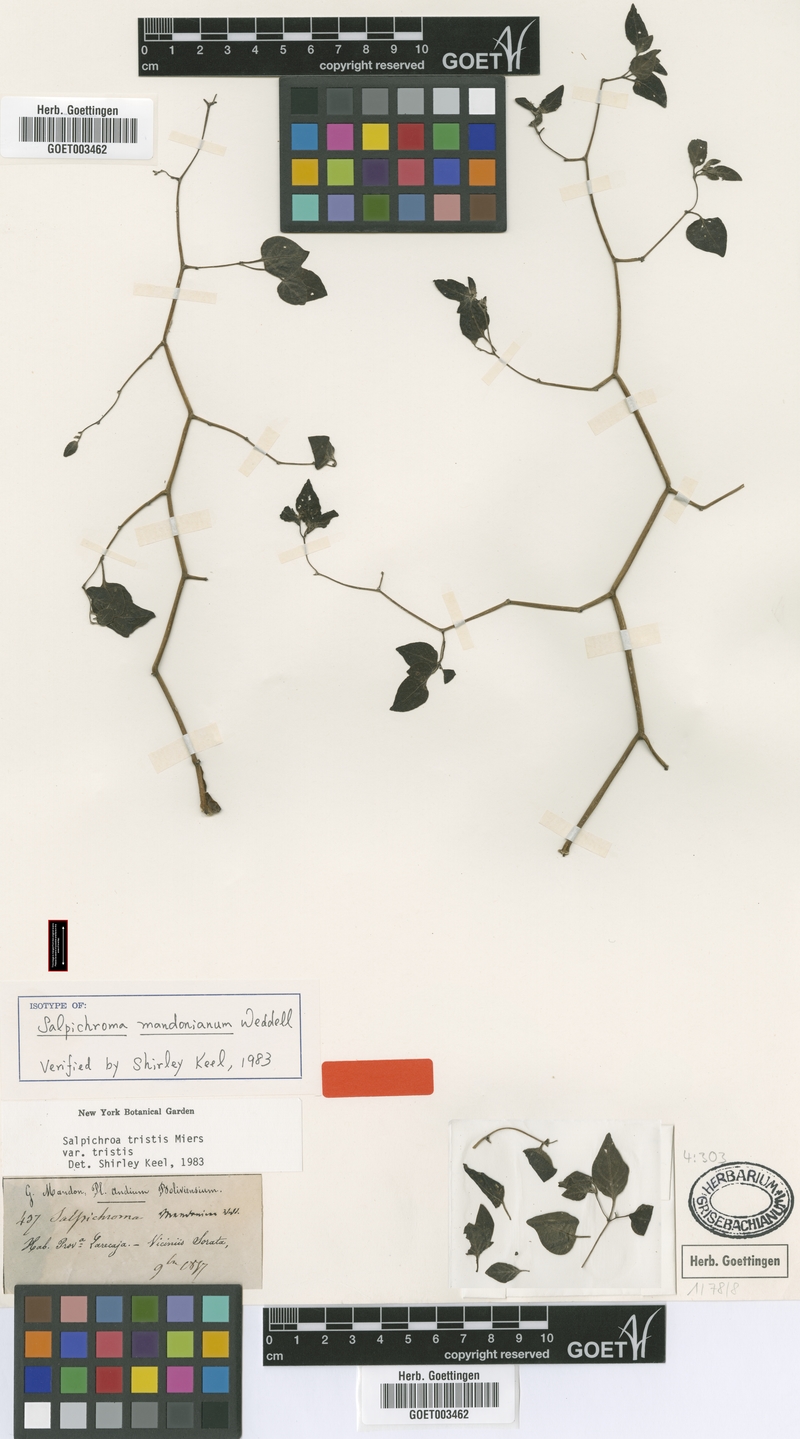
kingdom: Plantae
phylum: Tracheophyta
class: Magnoliopsida
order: Solanales
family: Solanaceae
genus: Salpichroa
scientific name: Salpichroa tristis
